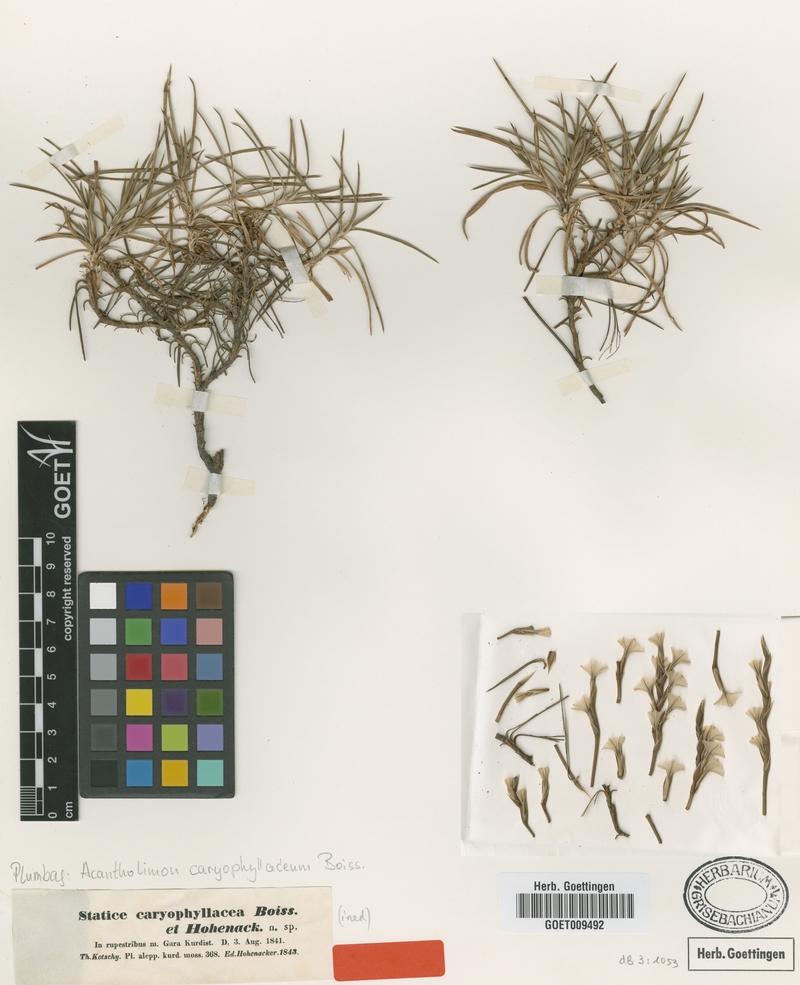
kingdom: Plantae
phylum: Tracheophyta
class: Magnoliopsida
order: Caryophyllales
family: Plumbaginaceae
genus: Acantholimon
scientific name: Acantholimon caryophyllaceum
